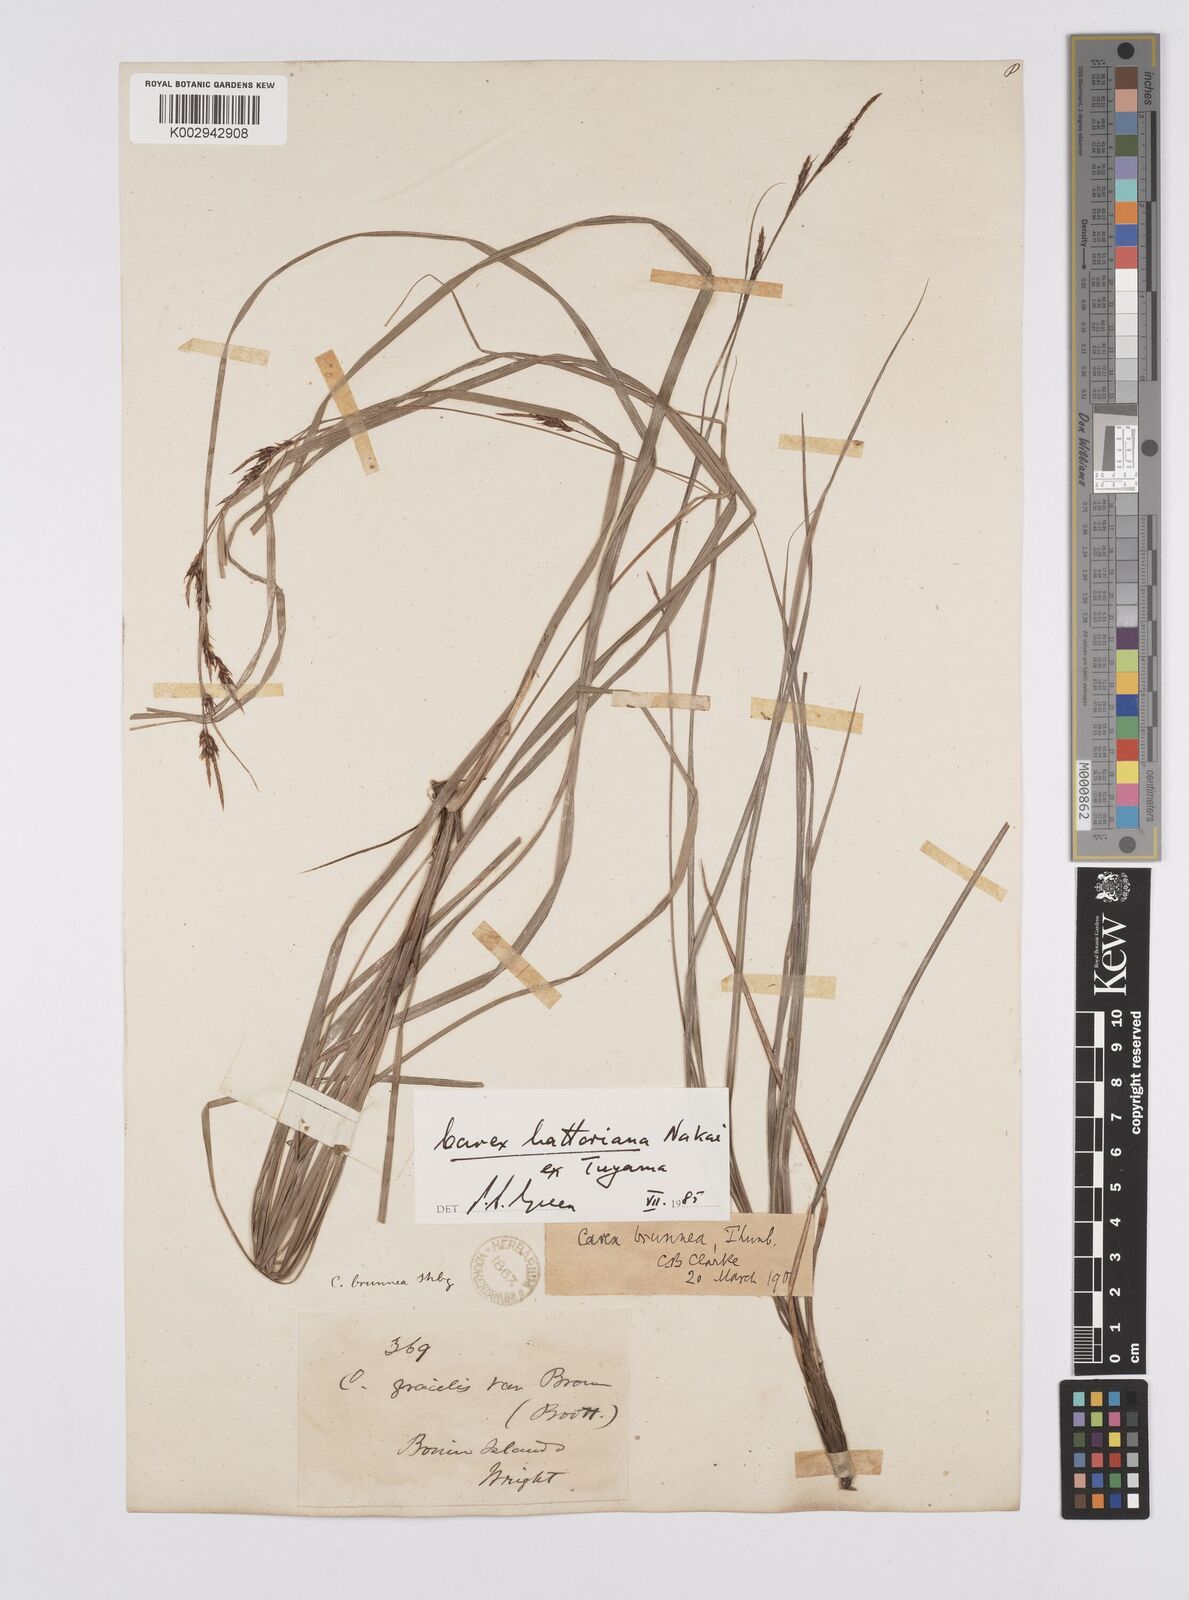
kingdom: Plantae
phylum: Tracheophyta
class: Liliopsida
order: Poales
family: Cyperaceae
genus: Carex
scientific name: Carex hattoriana
